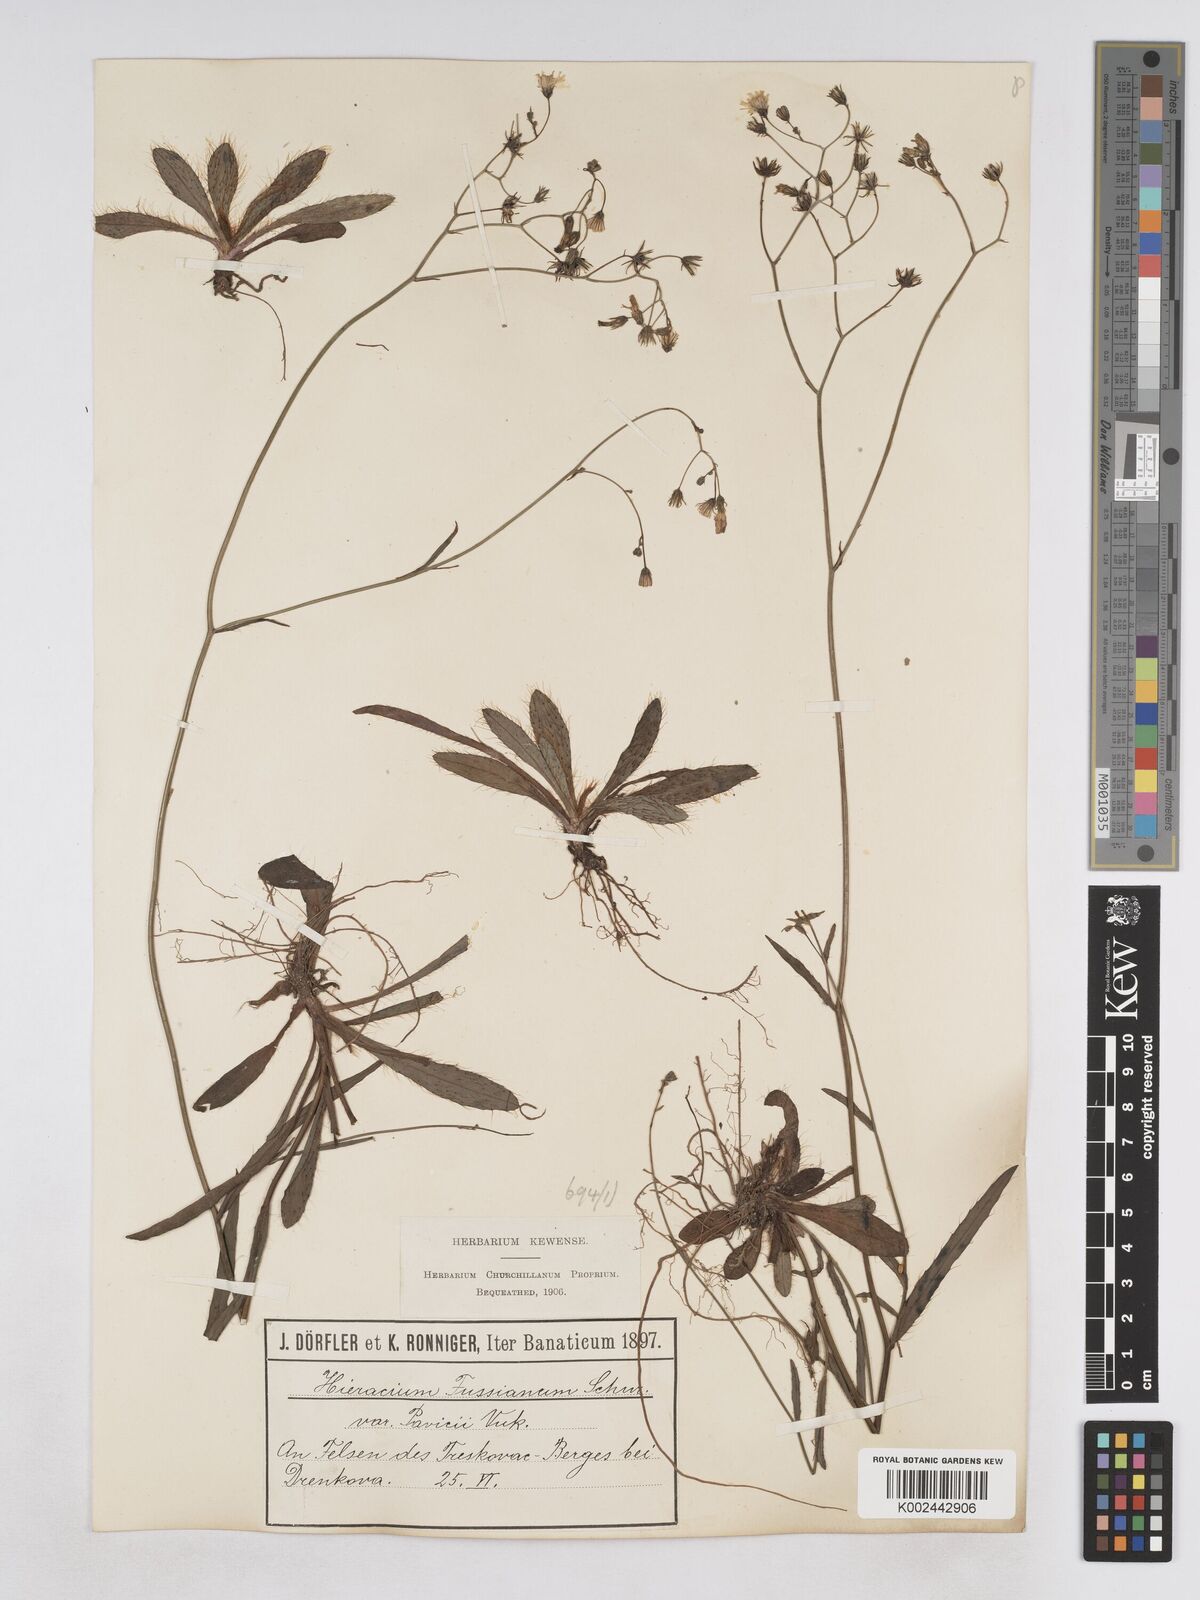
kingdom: Plantae
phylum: Tracheophyta
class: Magnoliopsida
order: Asterales
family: Asteraceae
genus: Pilosella
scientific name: Pilosella pavichii
